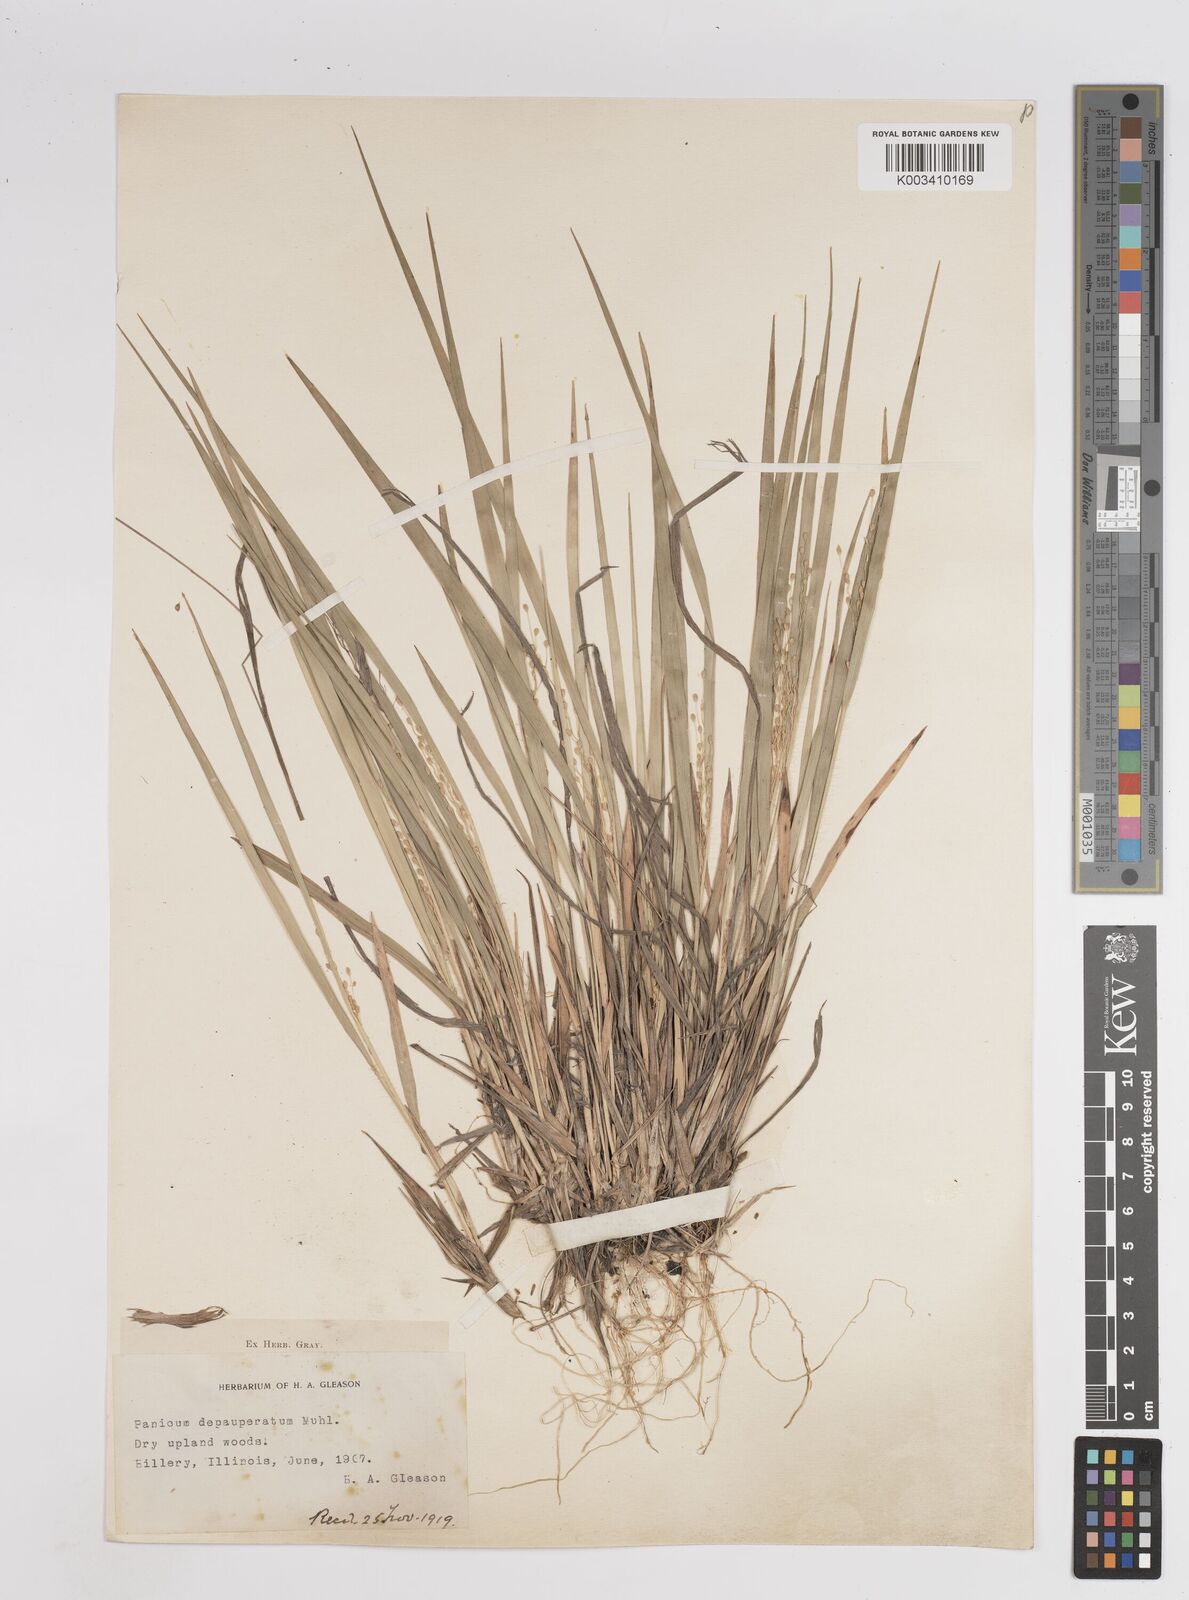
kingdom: Plantae
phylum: Tracheophyta
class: Liliopsida
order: Poales
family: Poaceae
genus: Dichanthelium
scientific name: Dichanthelium depauperatum
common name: Depauperate panicgrass
